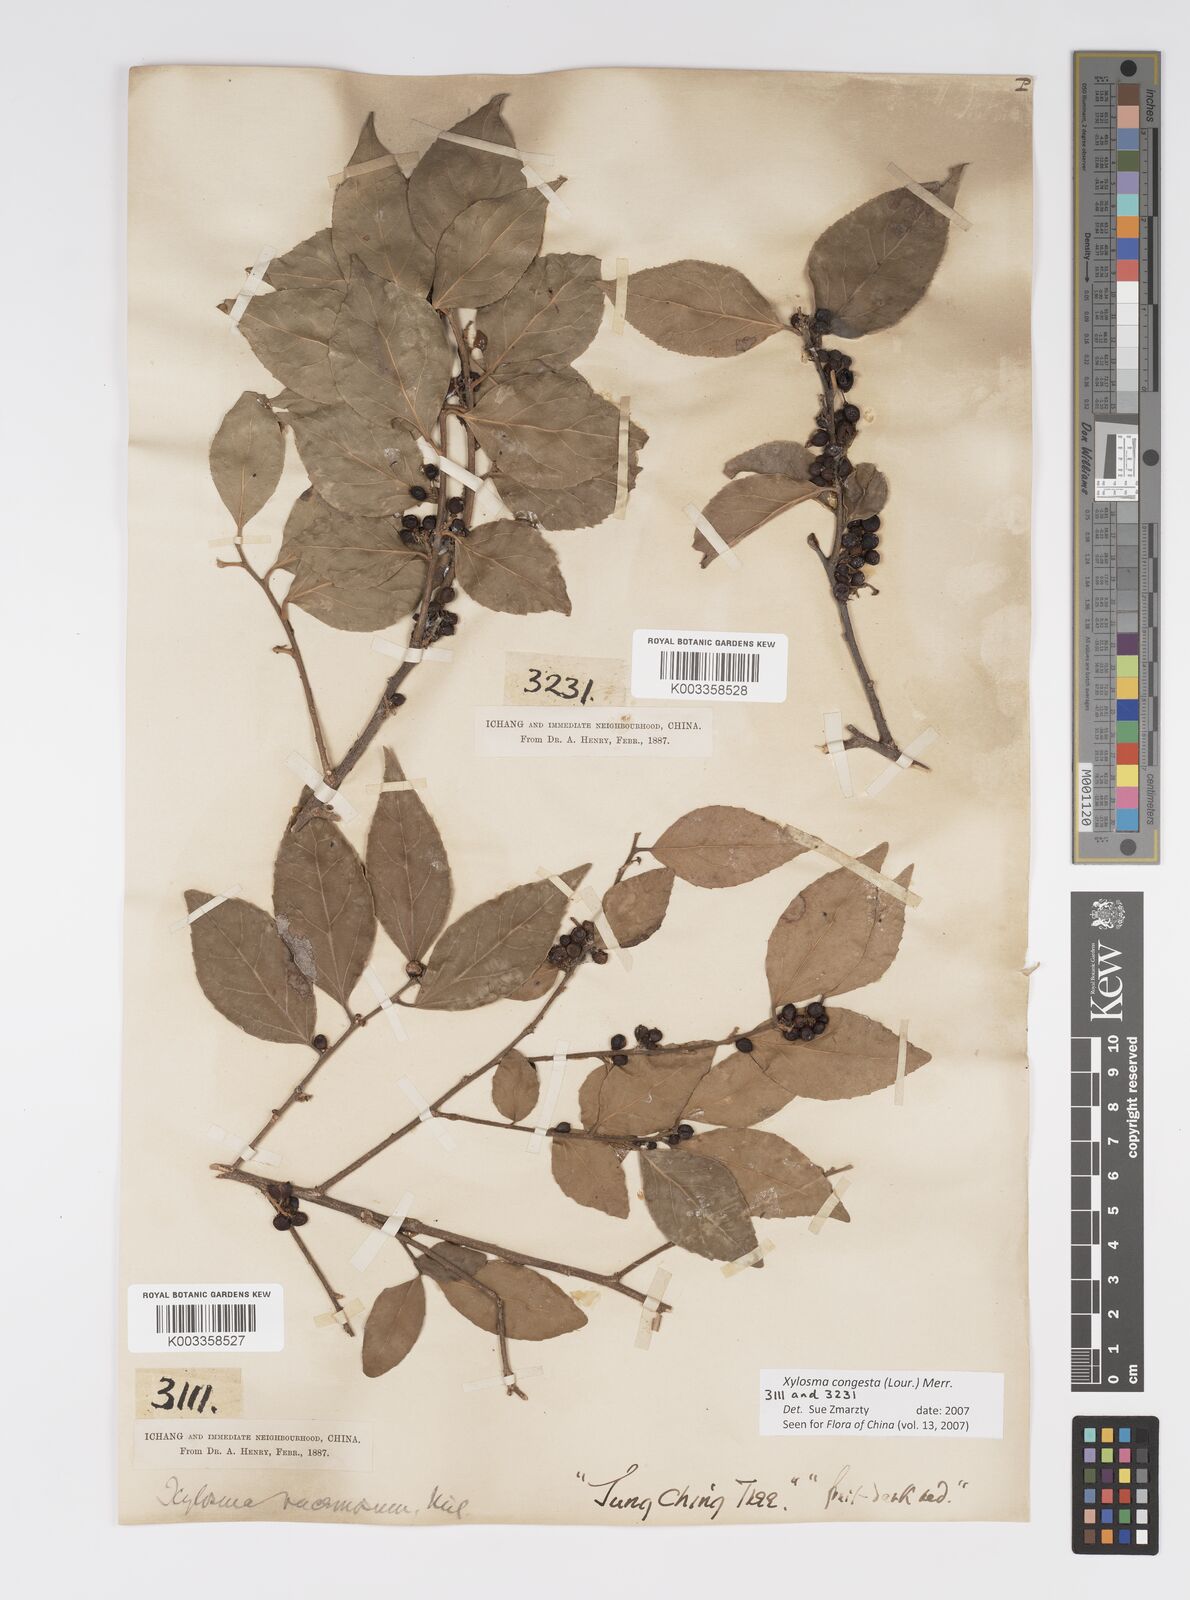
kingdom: Plantae
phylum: Tracheophyta
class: Magnoliopsida
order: Malpighiales
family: Salicaceae
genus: Xylosma
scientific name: Xylosma racemosum
